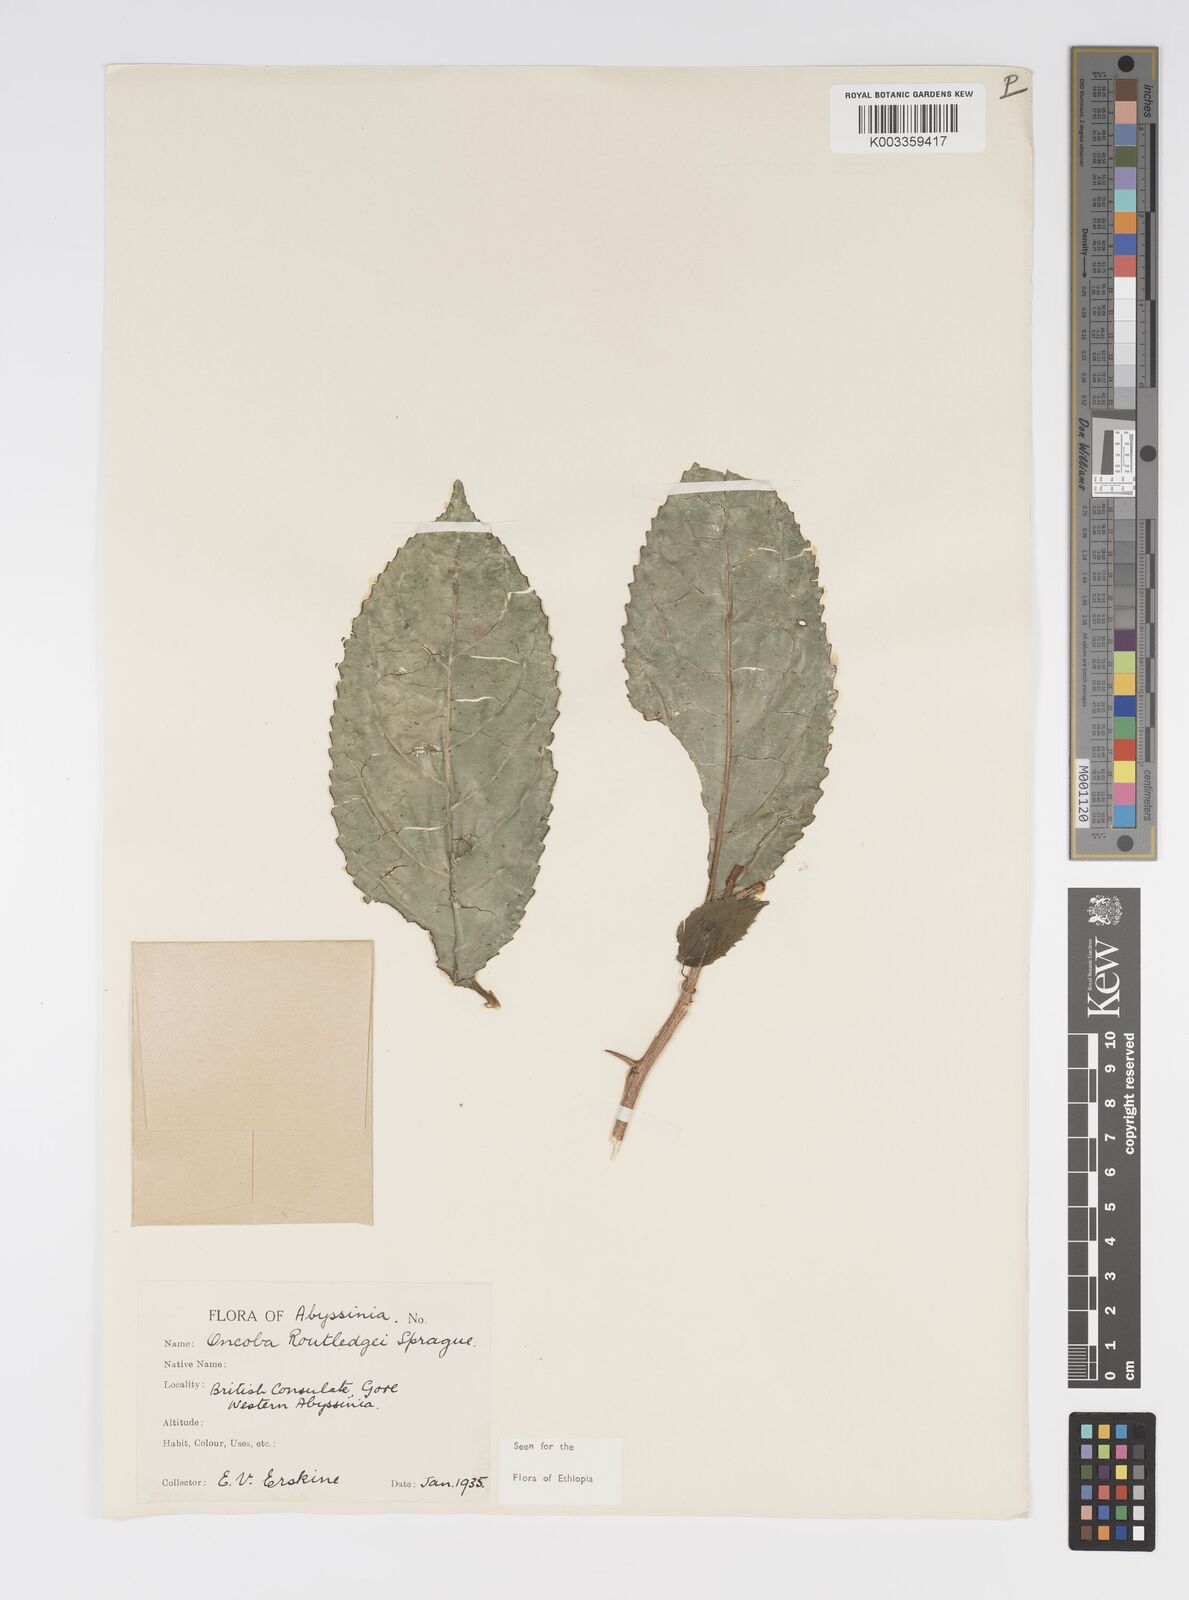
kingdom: Plantae
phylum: Tracheophyta
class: Magnoliopsida
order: Malpighiales
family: Salicaceae
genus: Oncoba
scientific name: Oncoba routledgei
